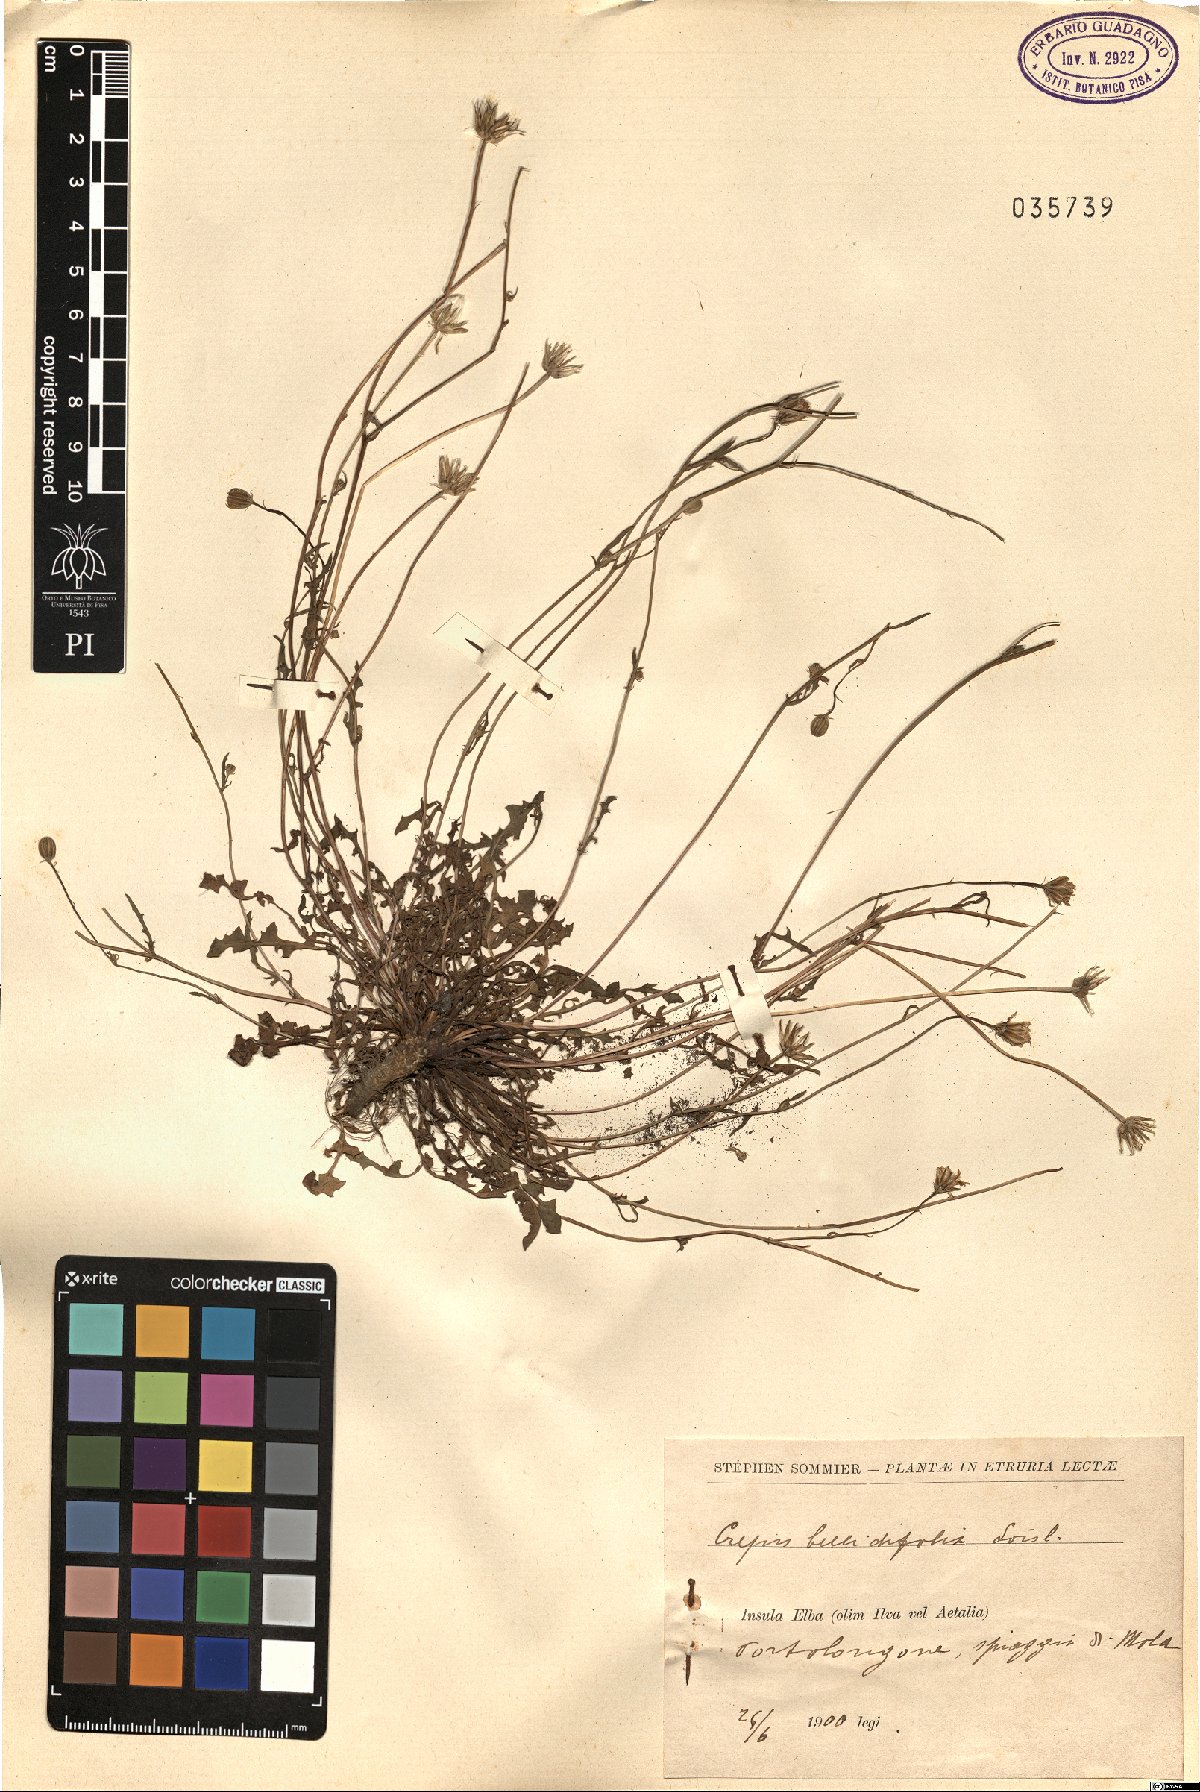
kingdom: Plantae
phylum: Tracheophyta
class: Magnoliopsida
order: Asterales
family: Asteraceae
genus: Crepis
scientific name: Crepis bellidifolia
